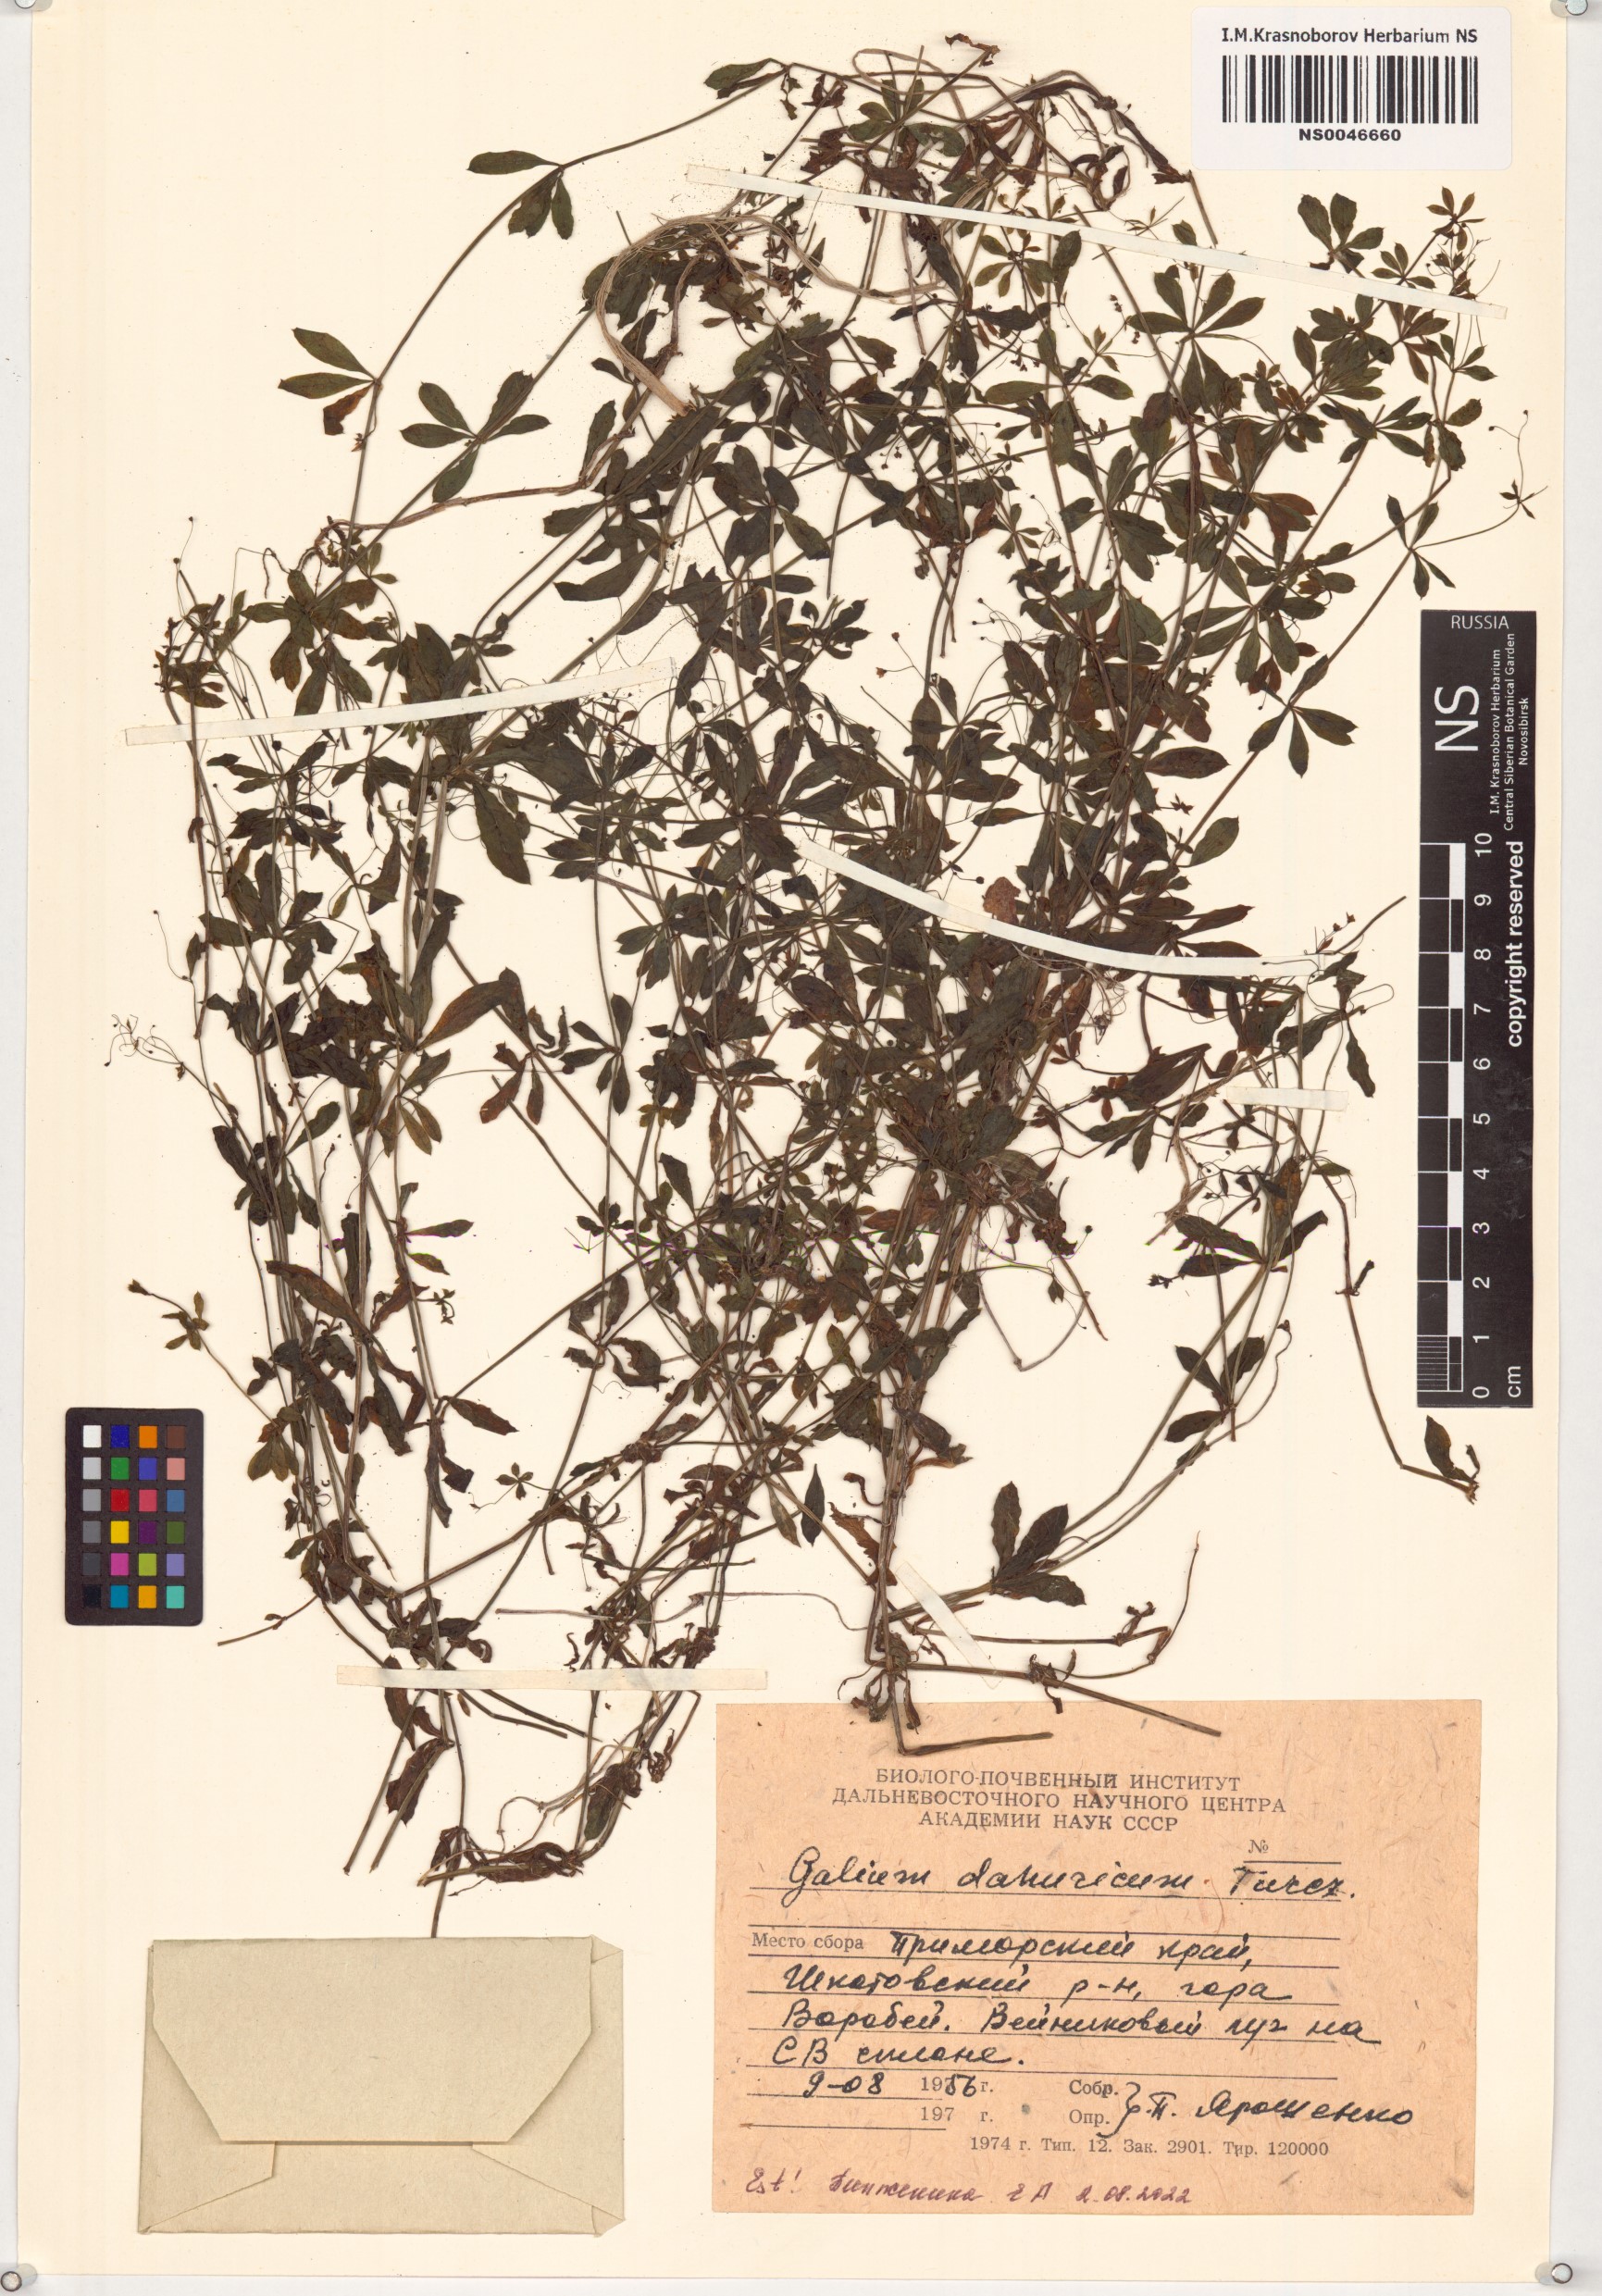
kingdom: Plantae
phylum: Tracheophyta
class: Magnoliopsida
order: Gentianales
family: Rubiaceae
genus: Galium
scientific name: Galium dahuricum
